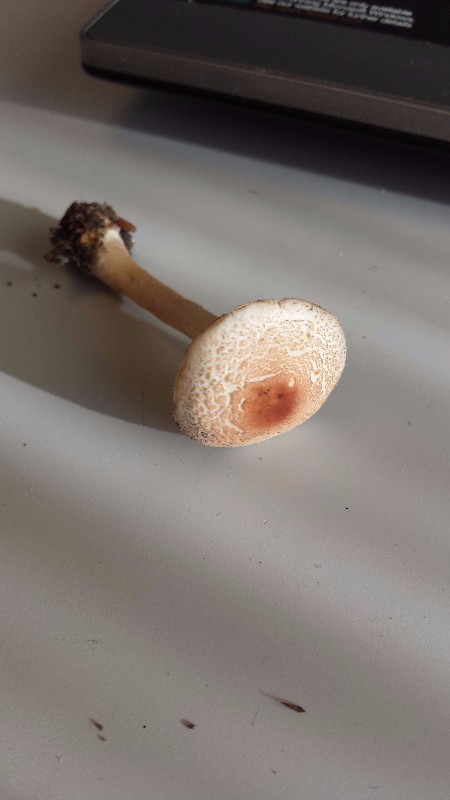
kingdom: Fungi
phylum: Basidiomycota
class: Agaricomycetes
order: Agaricales
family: Agaricaceae
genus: Lepiota
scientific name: Lepiota erminea
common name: hvid parasolhat
